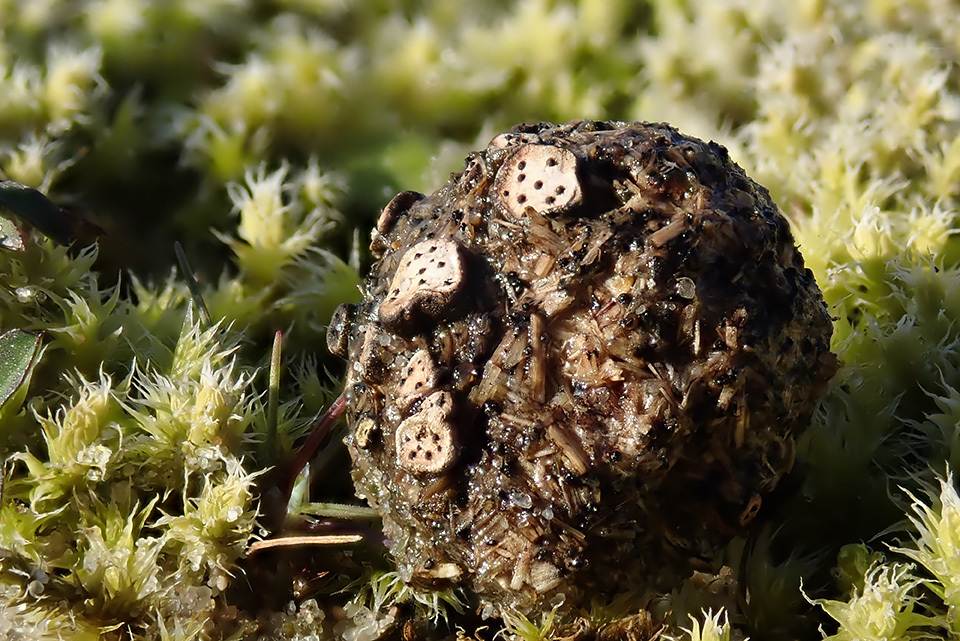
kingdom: Fungi
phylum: Ascomycota
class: Sordariomycetes
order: Xylariales
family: Xylariaceae
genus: Poronia
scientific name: Poronia erici
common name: hare-priksvamp
